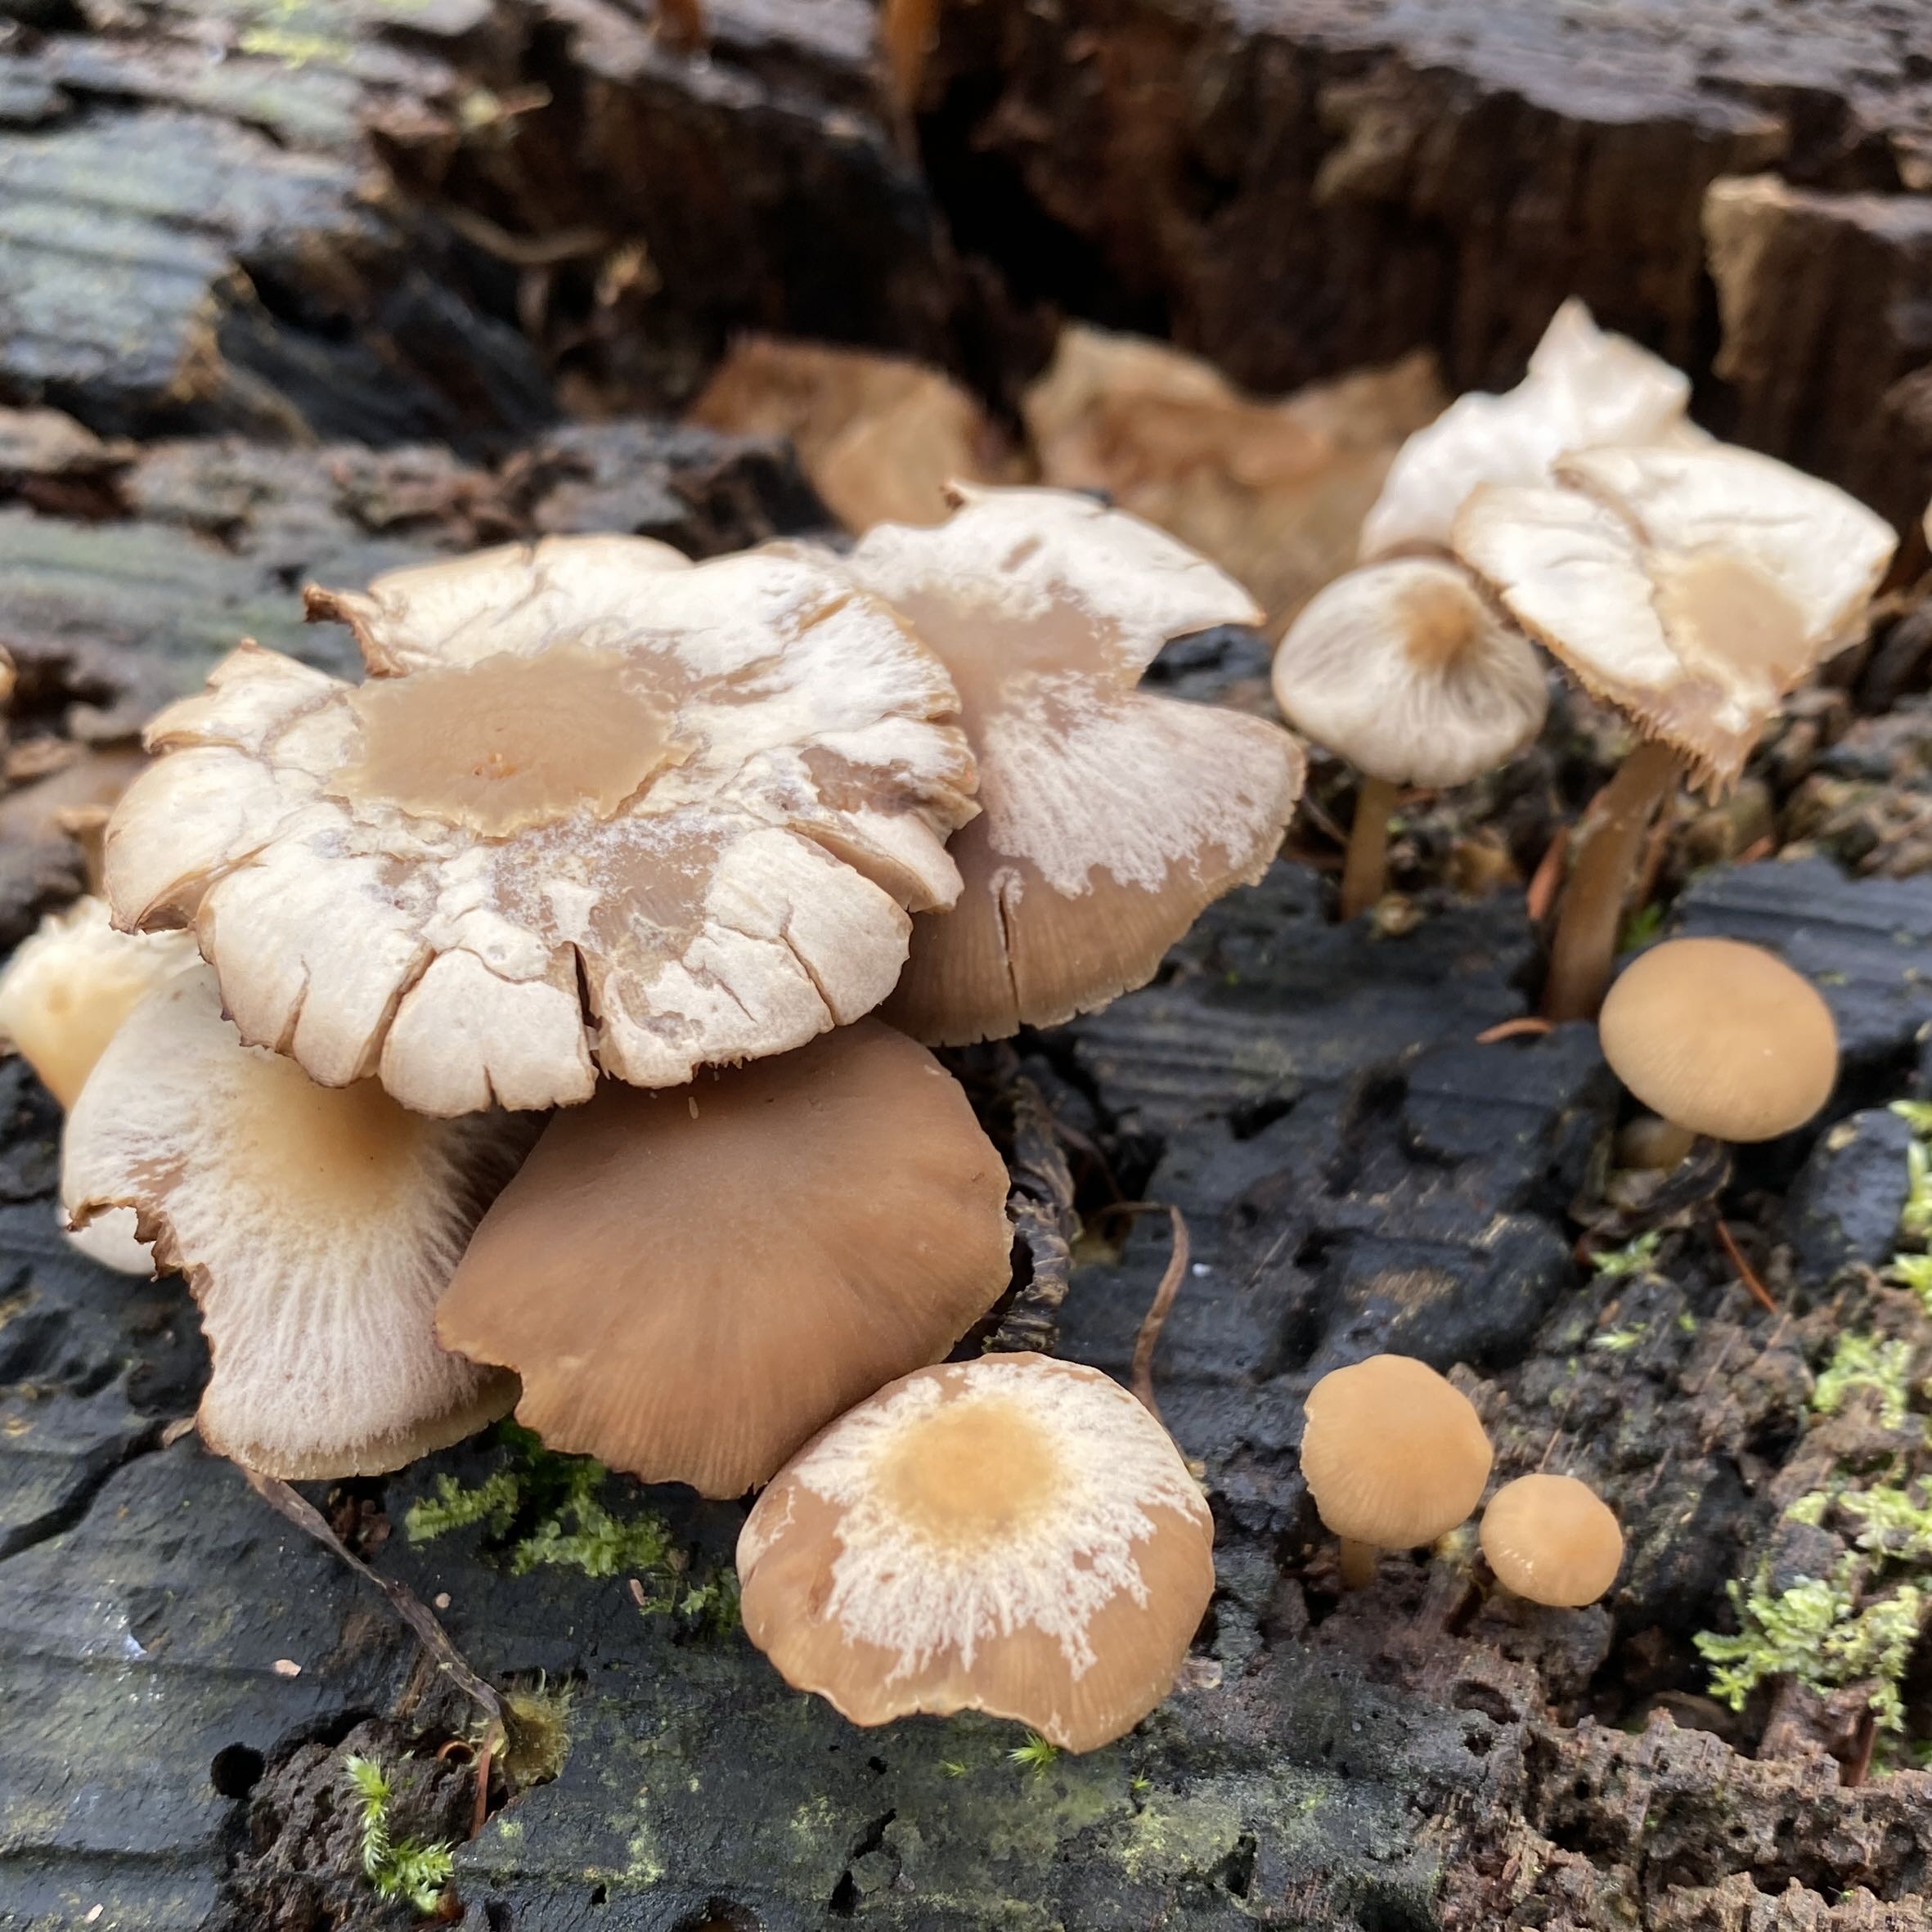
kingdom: Fungi
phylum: Basidiomycota
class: Agaricomycetes
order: Agaricales
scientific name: Agaricales
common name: champignonordenen
